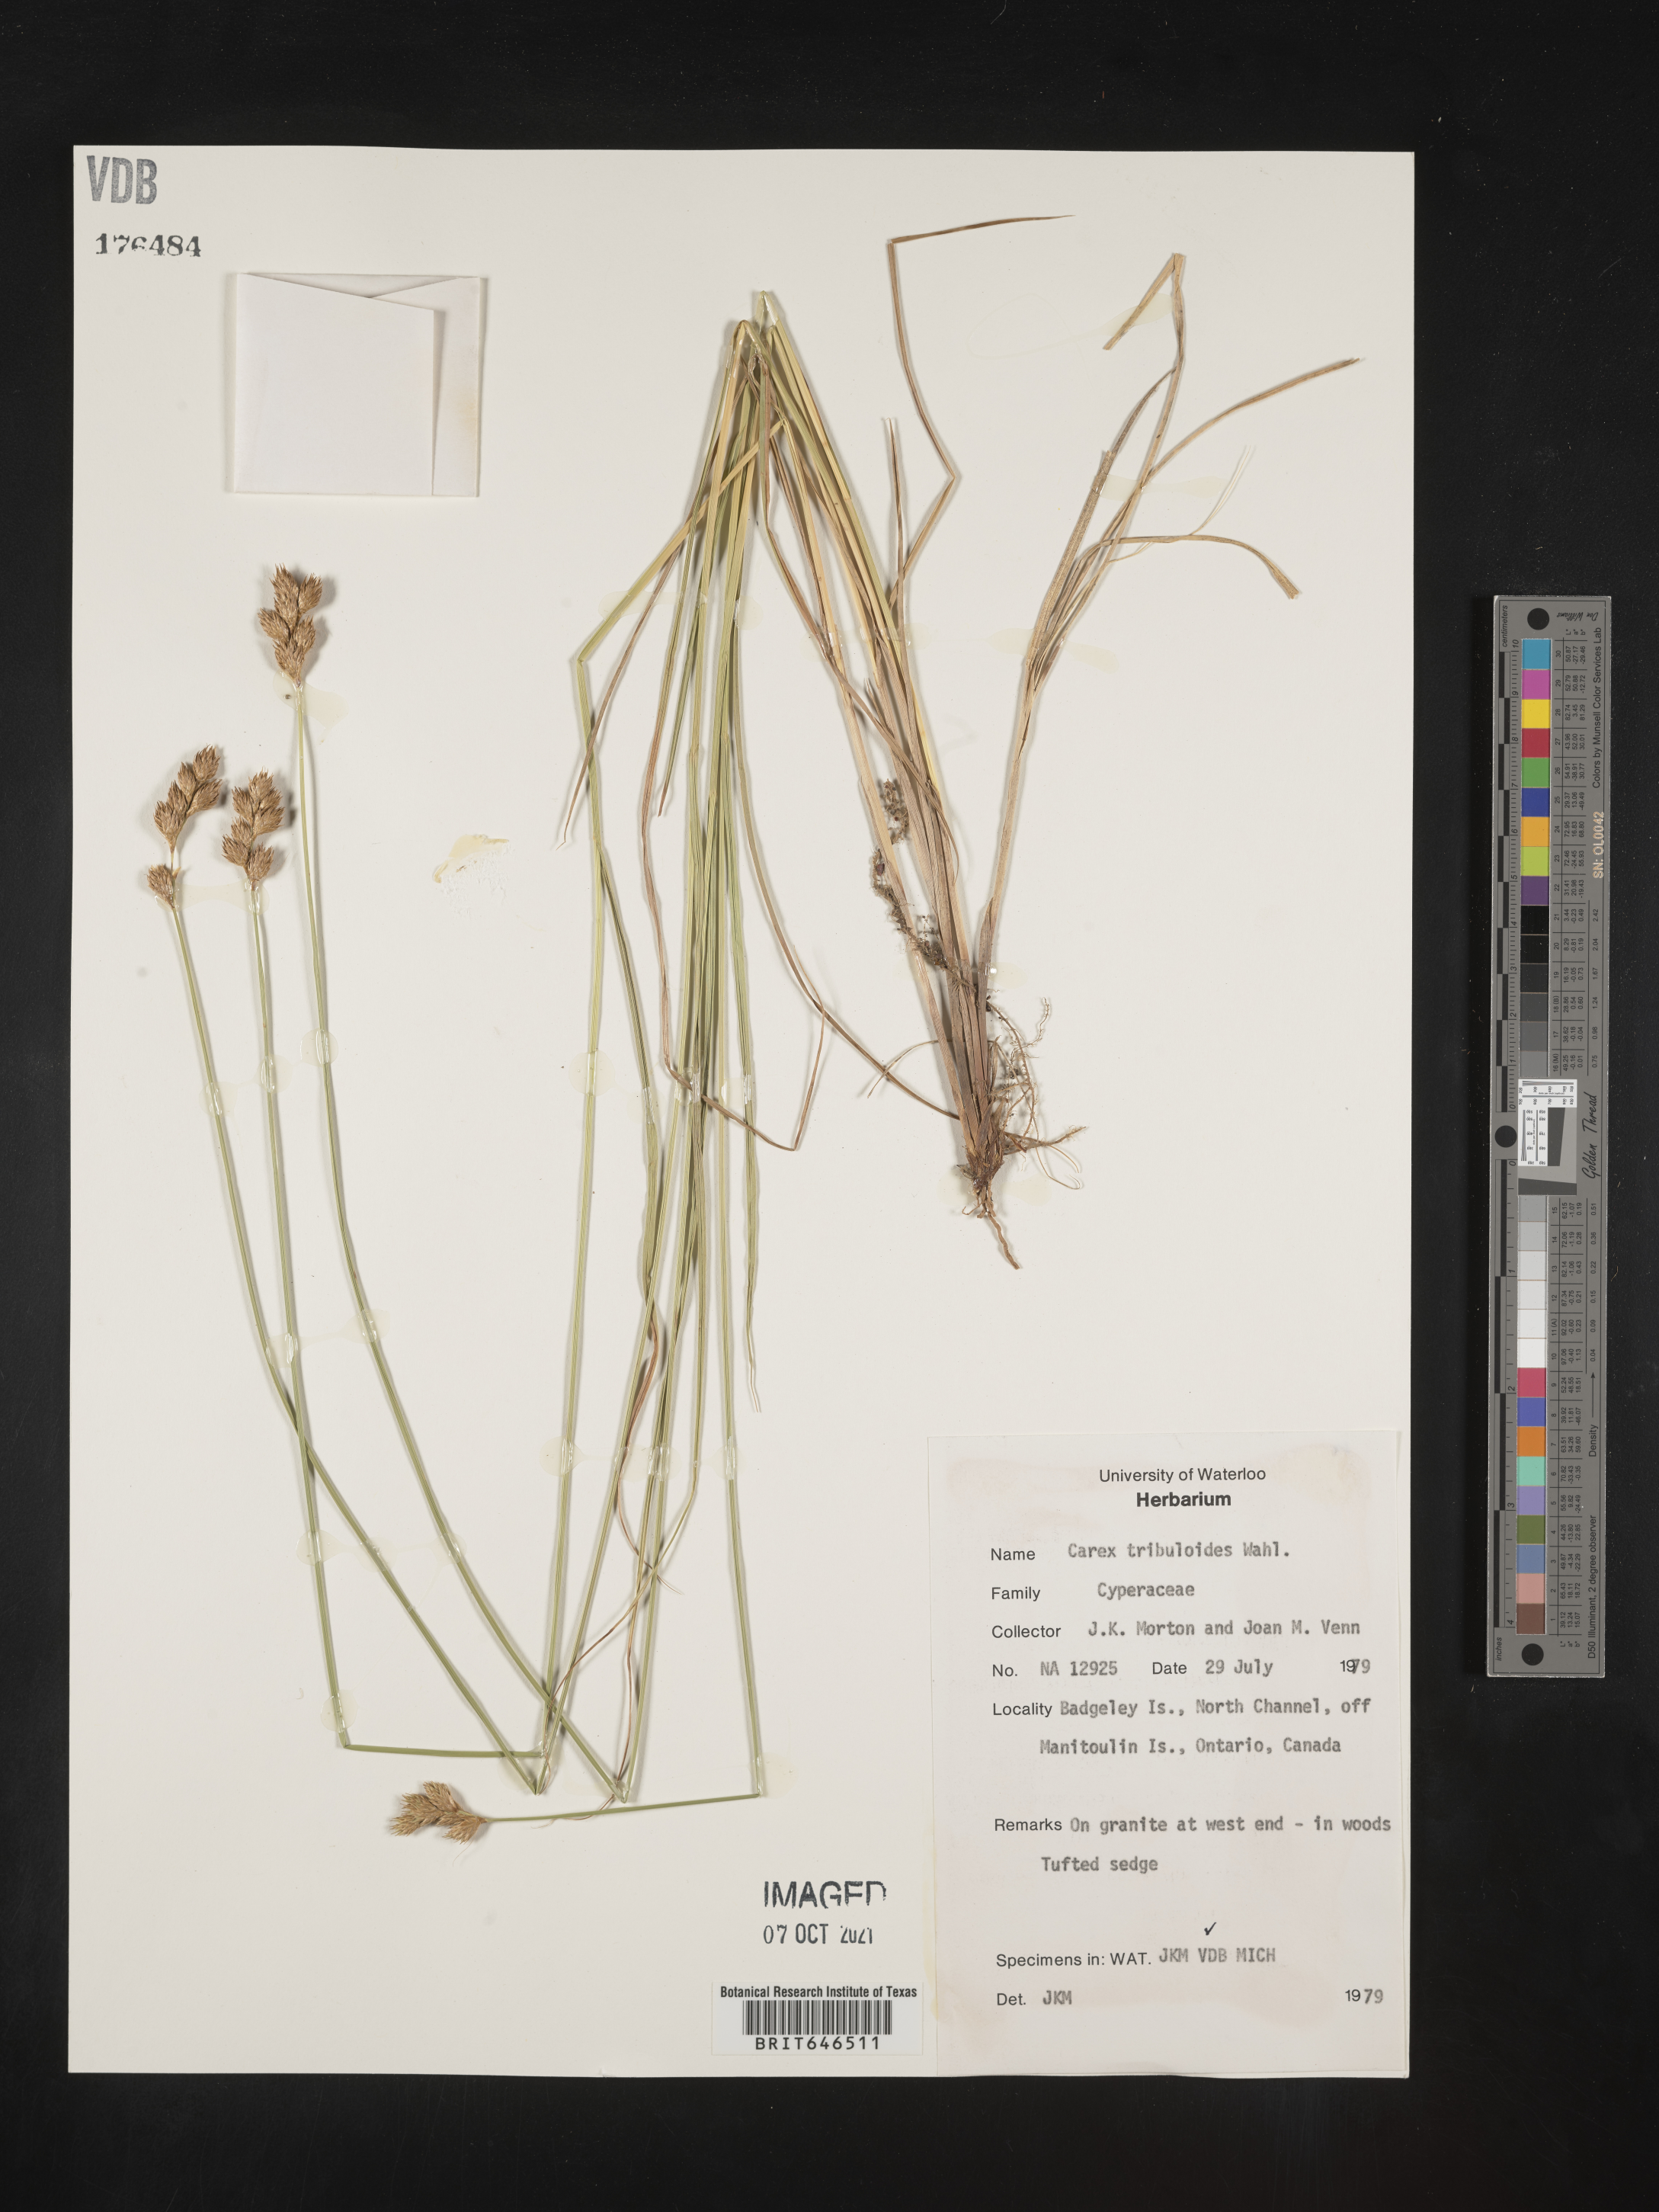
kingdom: Plantae
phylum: Tracheophyta
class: Liliopsida
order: Poales
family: Cyperaceae
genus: Carex
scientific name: Carex tribuloides
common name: Blunt broom sedge
